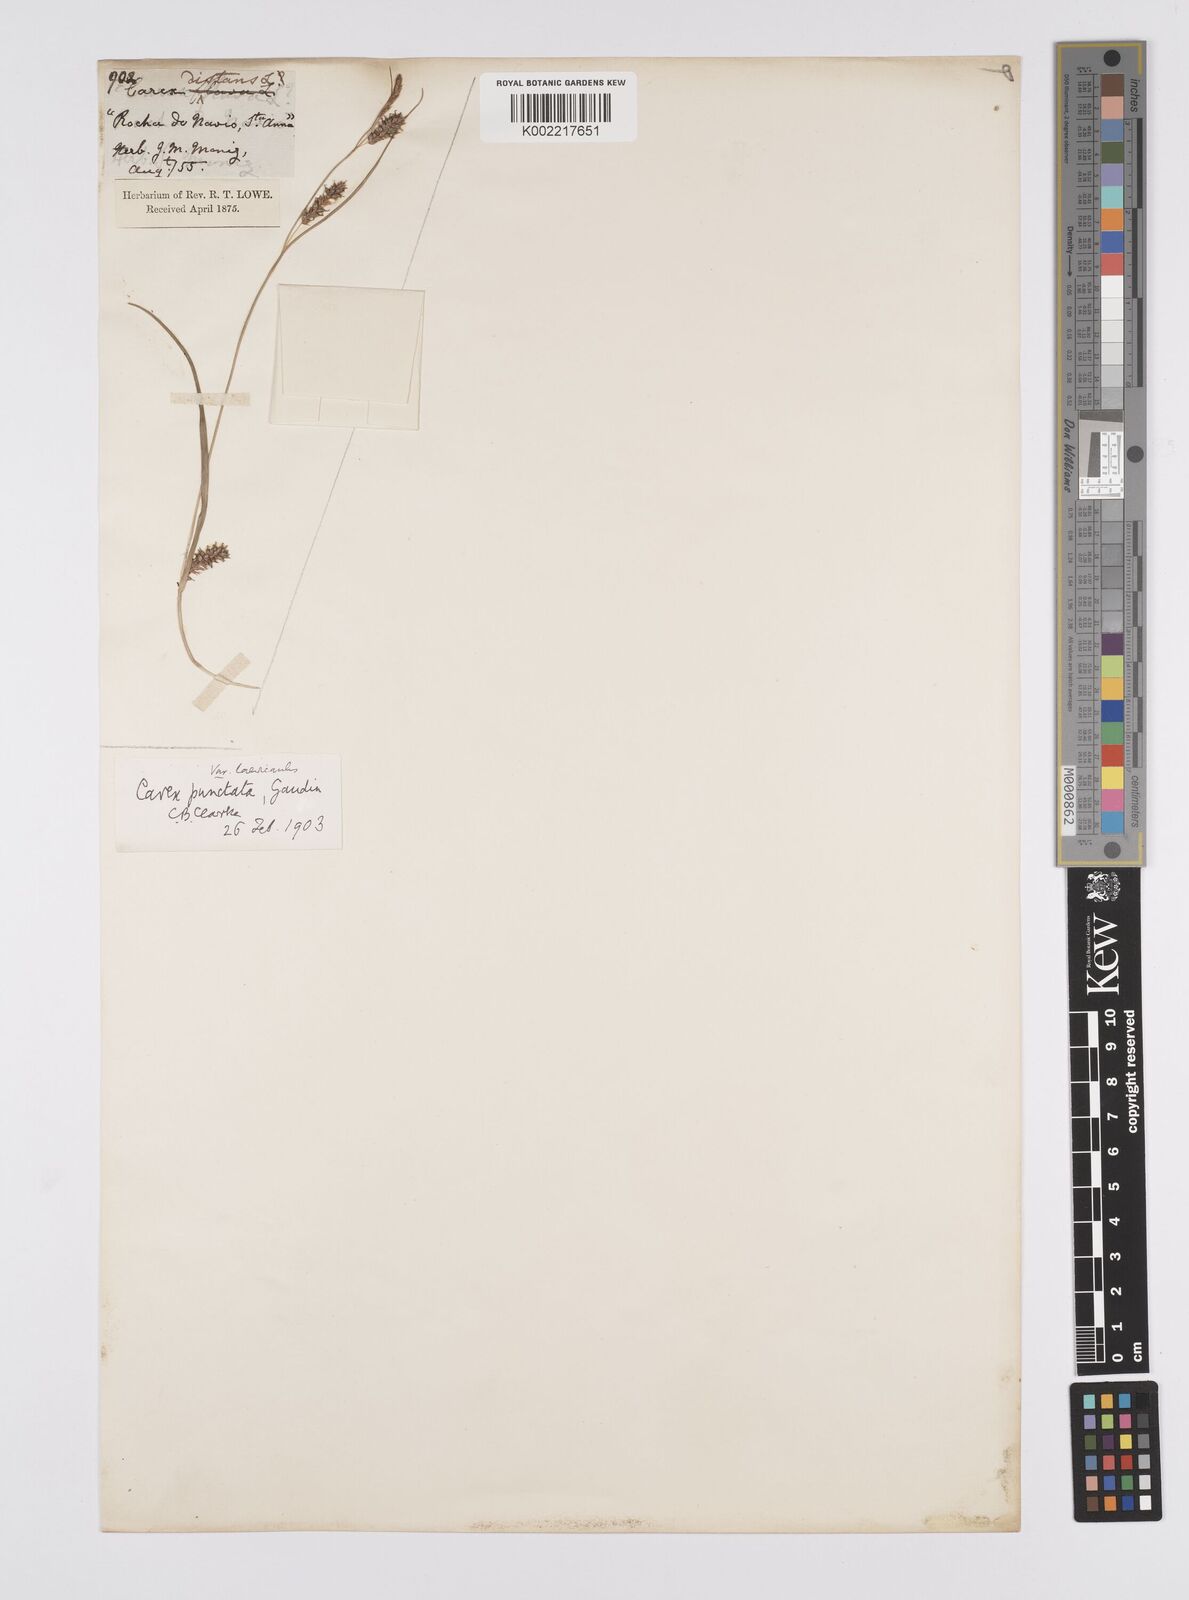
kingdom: Plantae
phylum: Tracheophyta
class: Liliopsida
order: Poales
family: Cyperaceae
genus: Carex
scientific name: Carex punctata
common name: Dotted sedge
